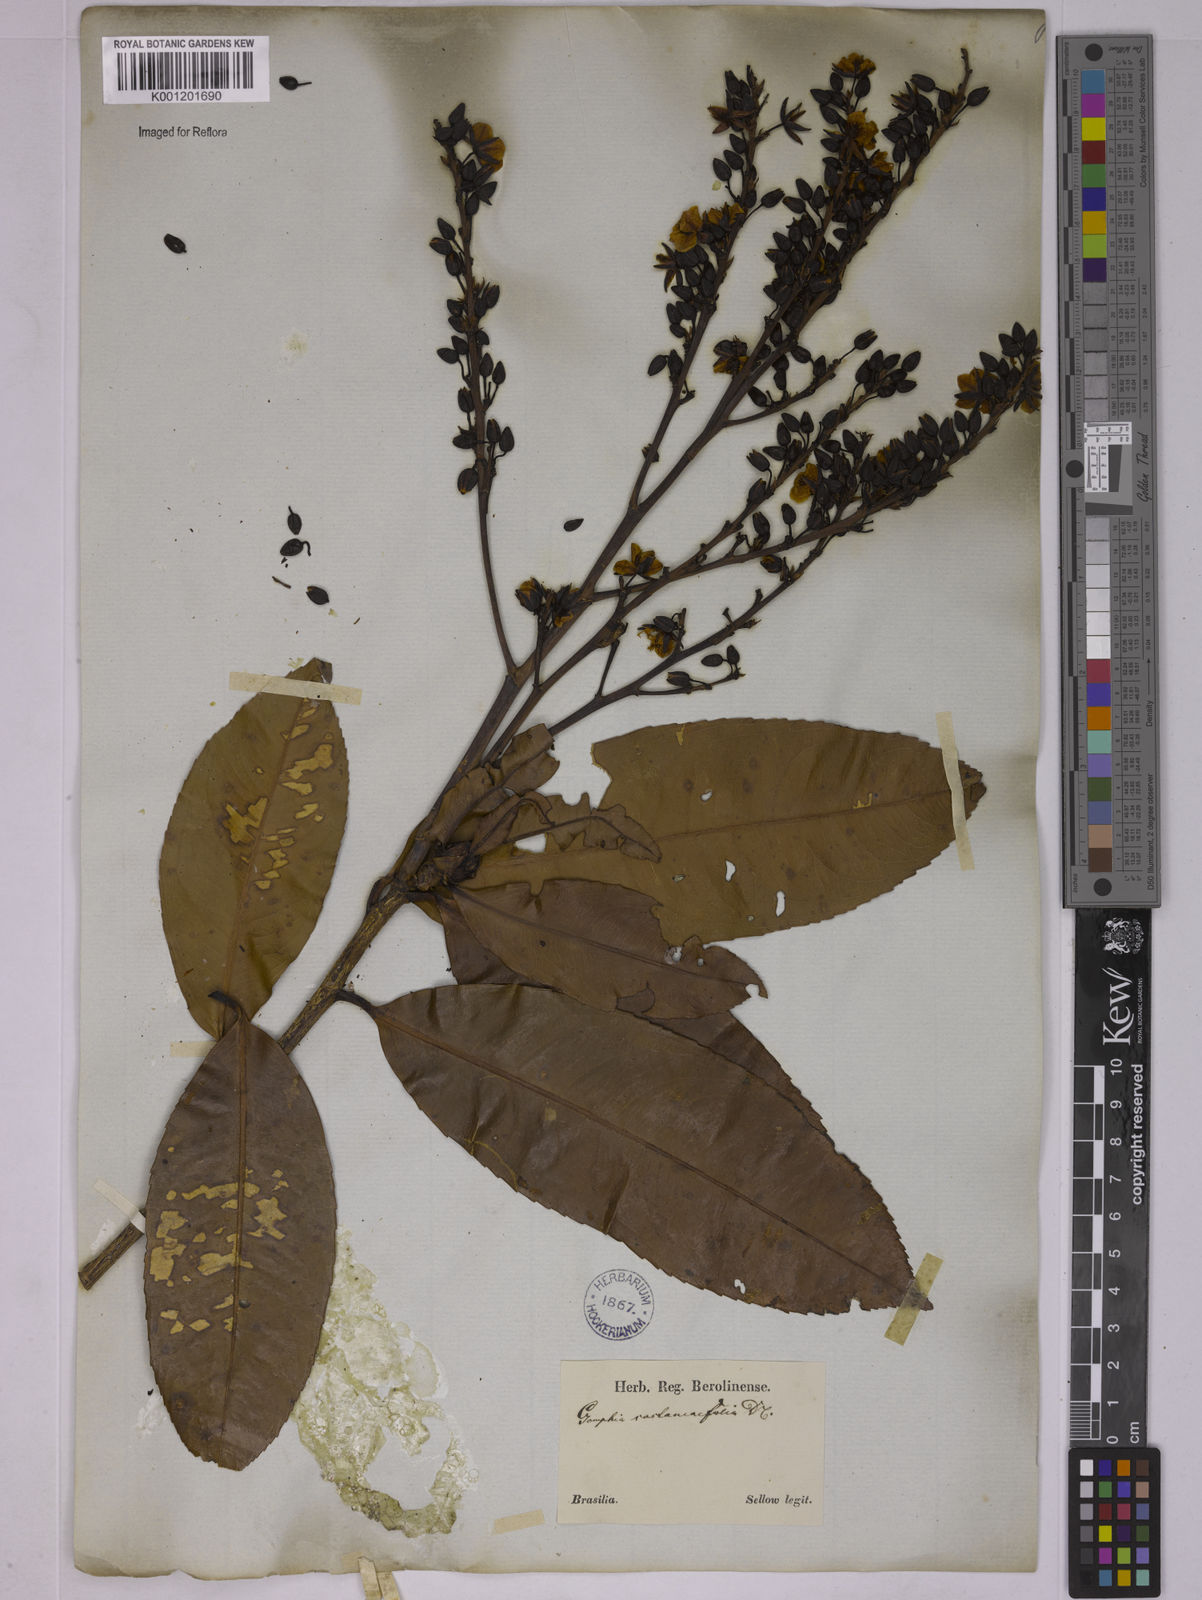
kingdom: Plantae
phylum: Tracheophyta
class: Magnoliopsida
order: Malpighiales
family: Ochnaceae
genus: Ouratea
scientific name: Ouratea castaneifolia
